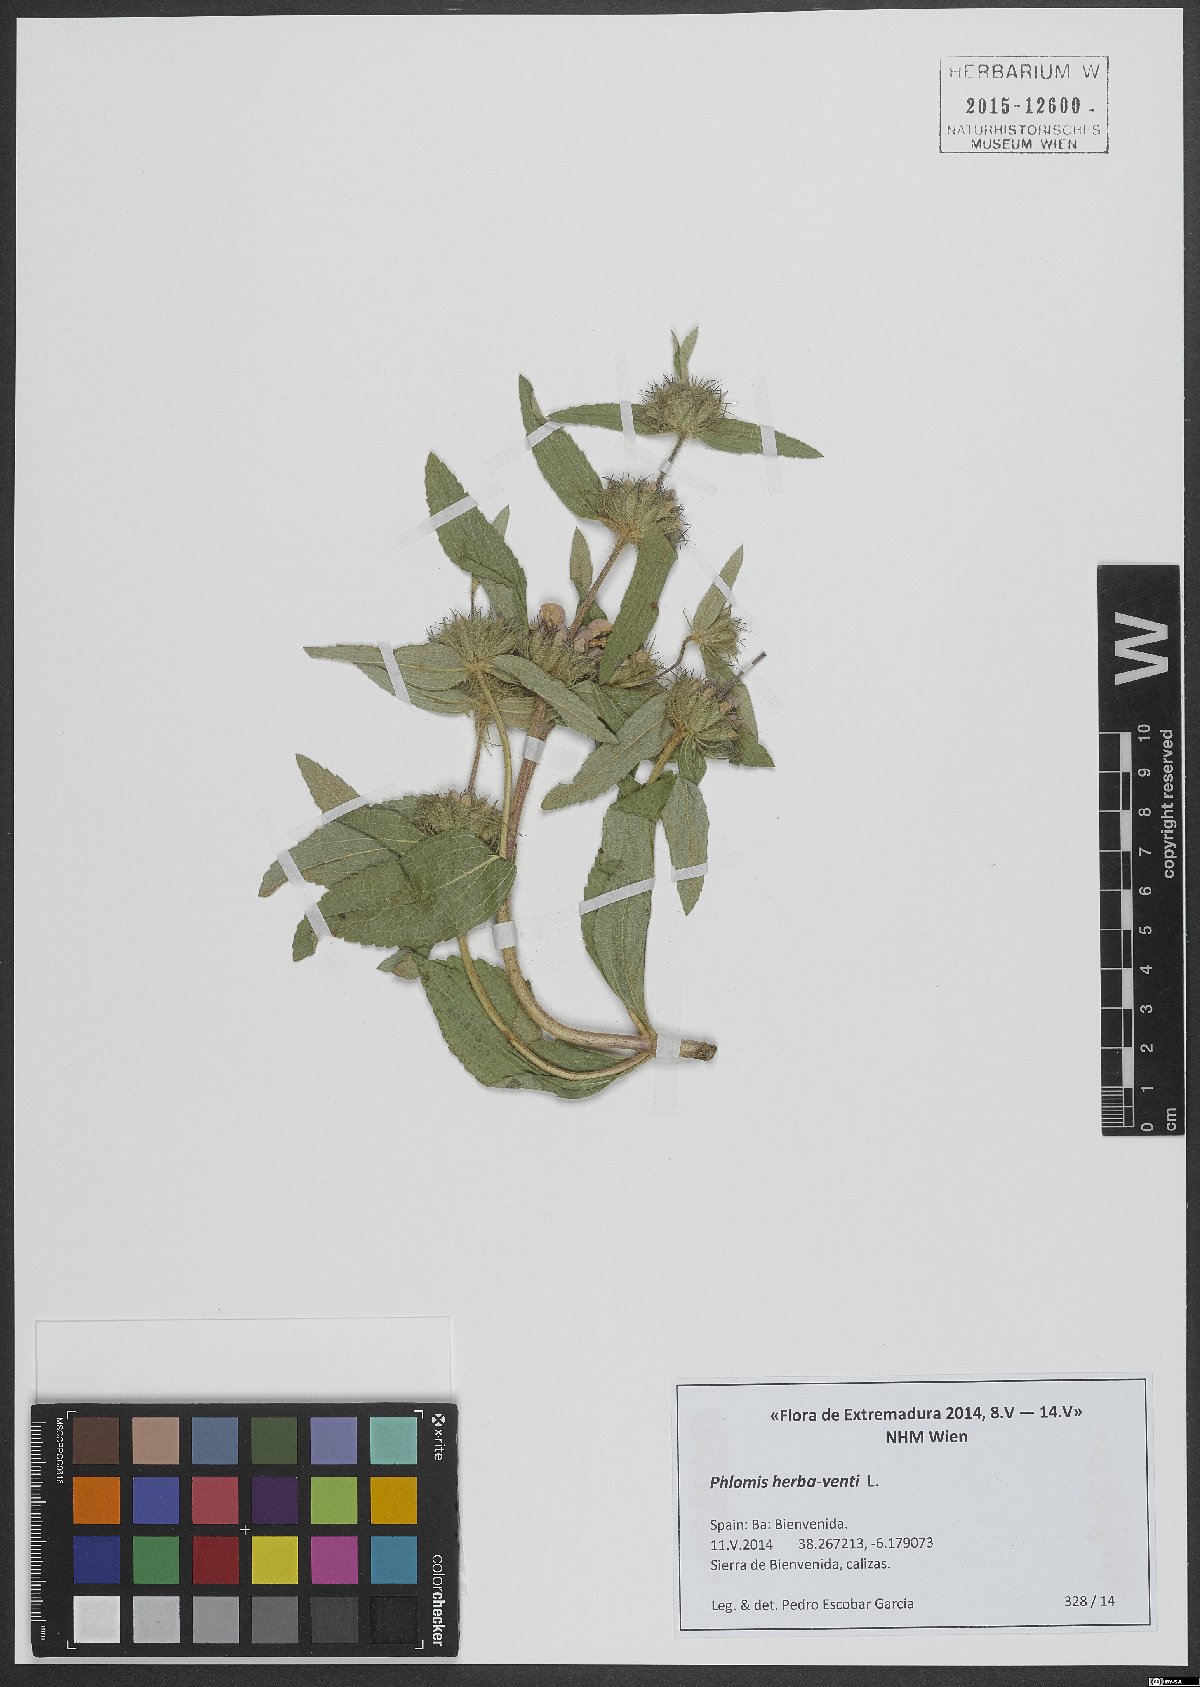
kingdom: Plantae
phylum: Tracheophyta
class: Magnoliopsida
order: Lamiales
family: Lamiaceae
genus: Phlomis
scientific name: Phlomis herba-venti
